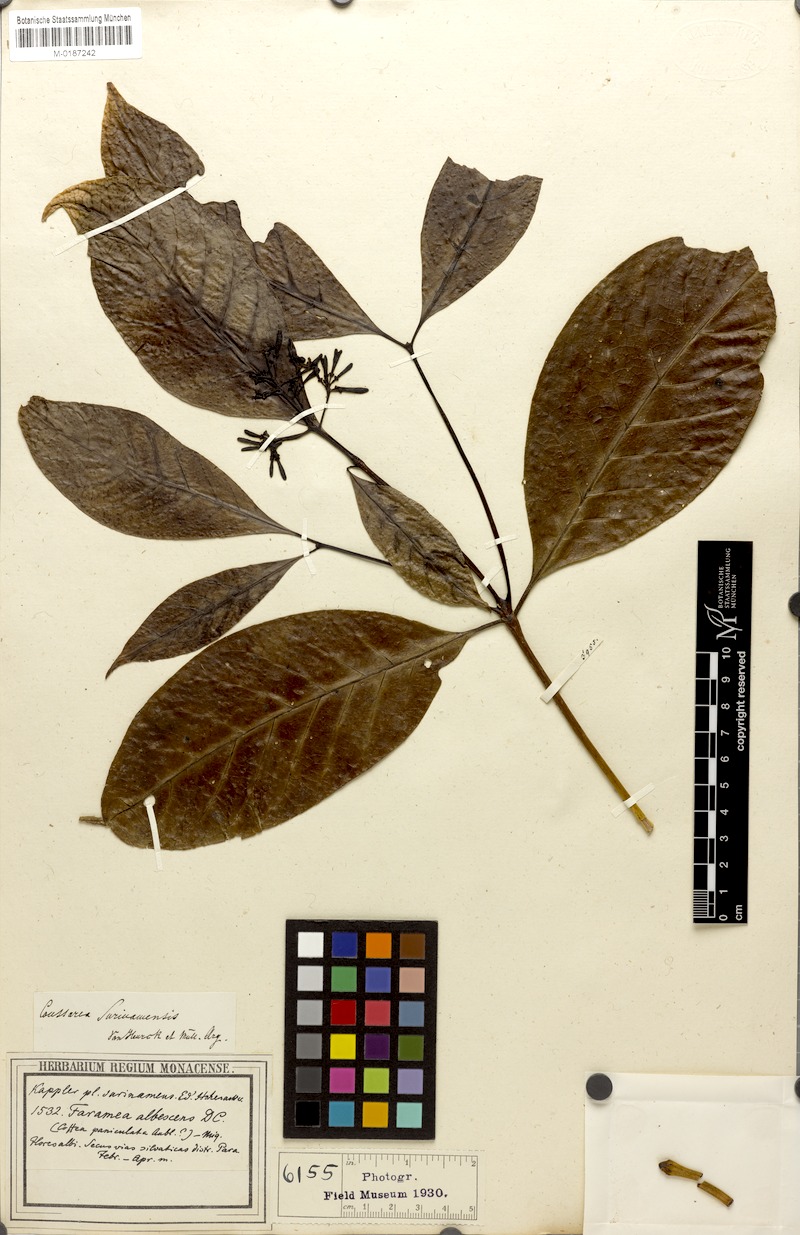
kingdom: Plantae
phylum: Tracheophyta
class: Magnoliopsida
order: Gentianales
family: Rubiaceae
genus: Coussarea
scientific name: Coussarea surinamensis
